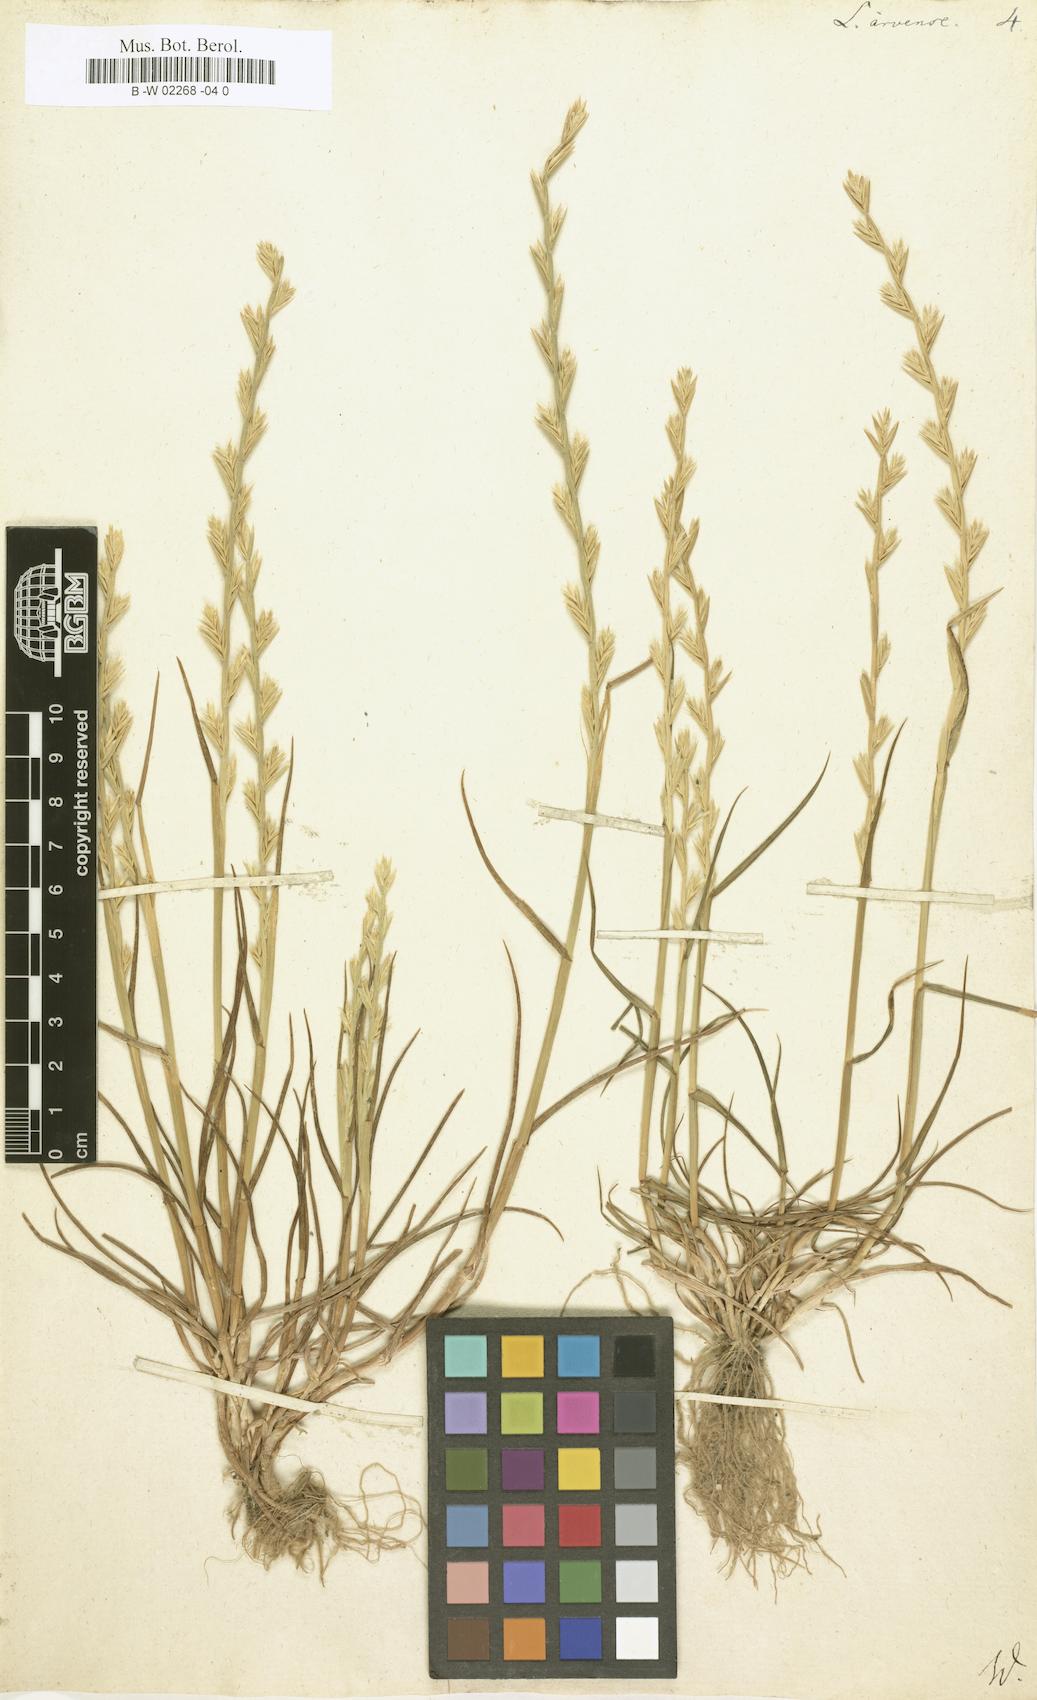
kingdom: Plantae
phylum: Tracheophyta
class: Liliopsida
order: Poales
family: Poaceae
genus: Lolium
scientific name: Lolium
